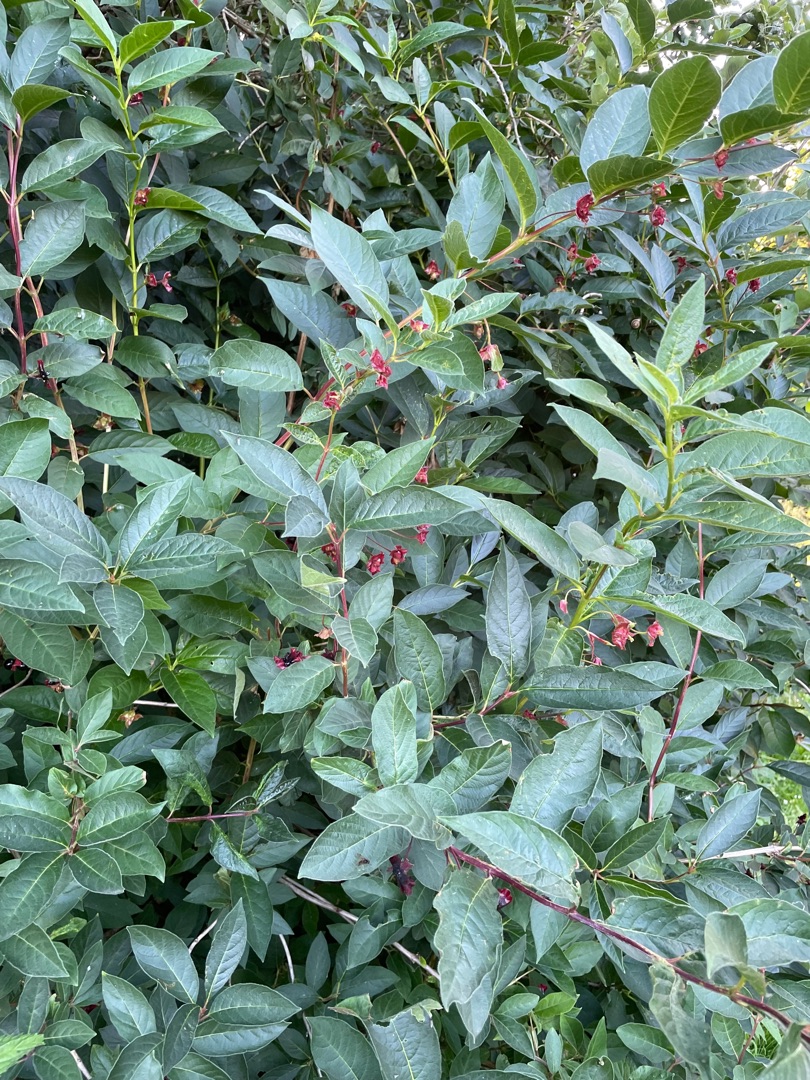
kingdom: Plantae
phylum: Tracheophyta
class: Magnoliopsida
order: Dipsacales
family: Caprifoliaceae
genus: Lonicera
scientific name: Lonicera involucrata
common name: Svøb-gedeblad
